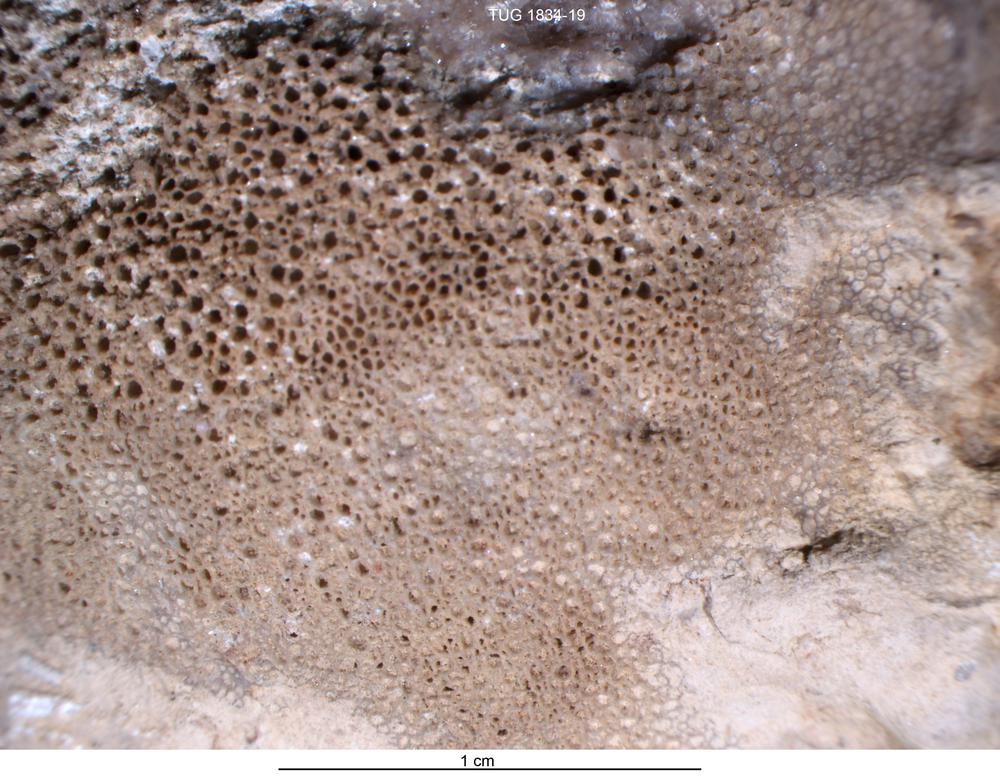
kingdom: Animalia
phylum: Cnidaria
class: Anthozoa
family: Favositidae
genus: Paleofavosites
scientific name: Paleofavosites
